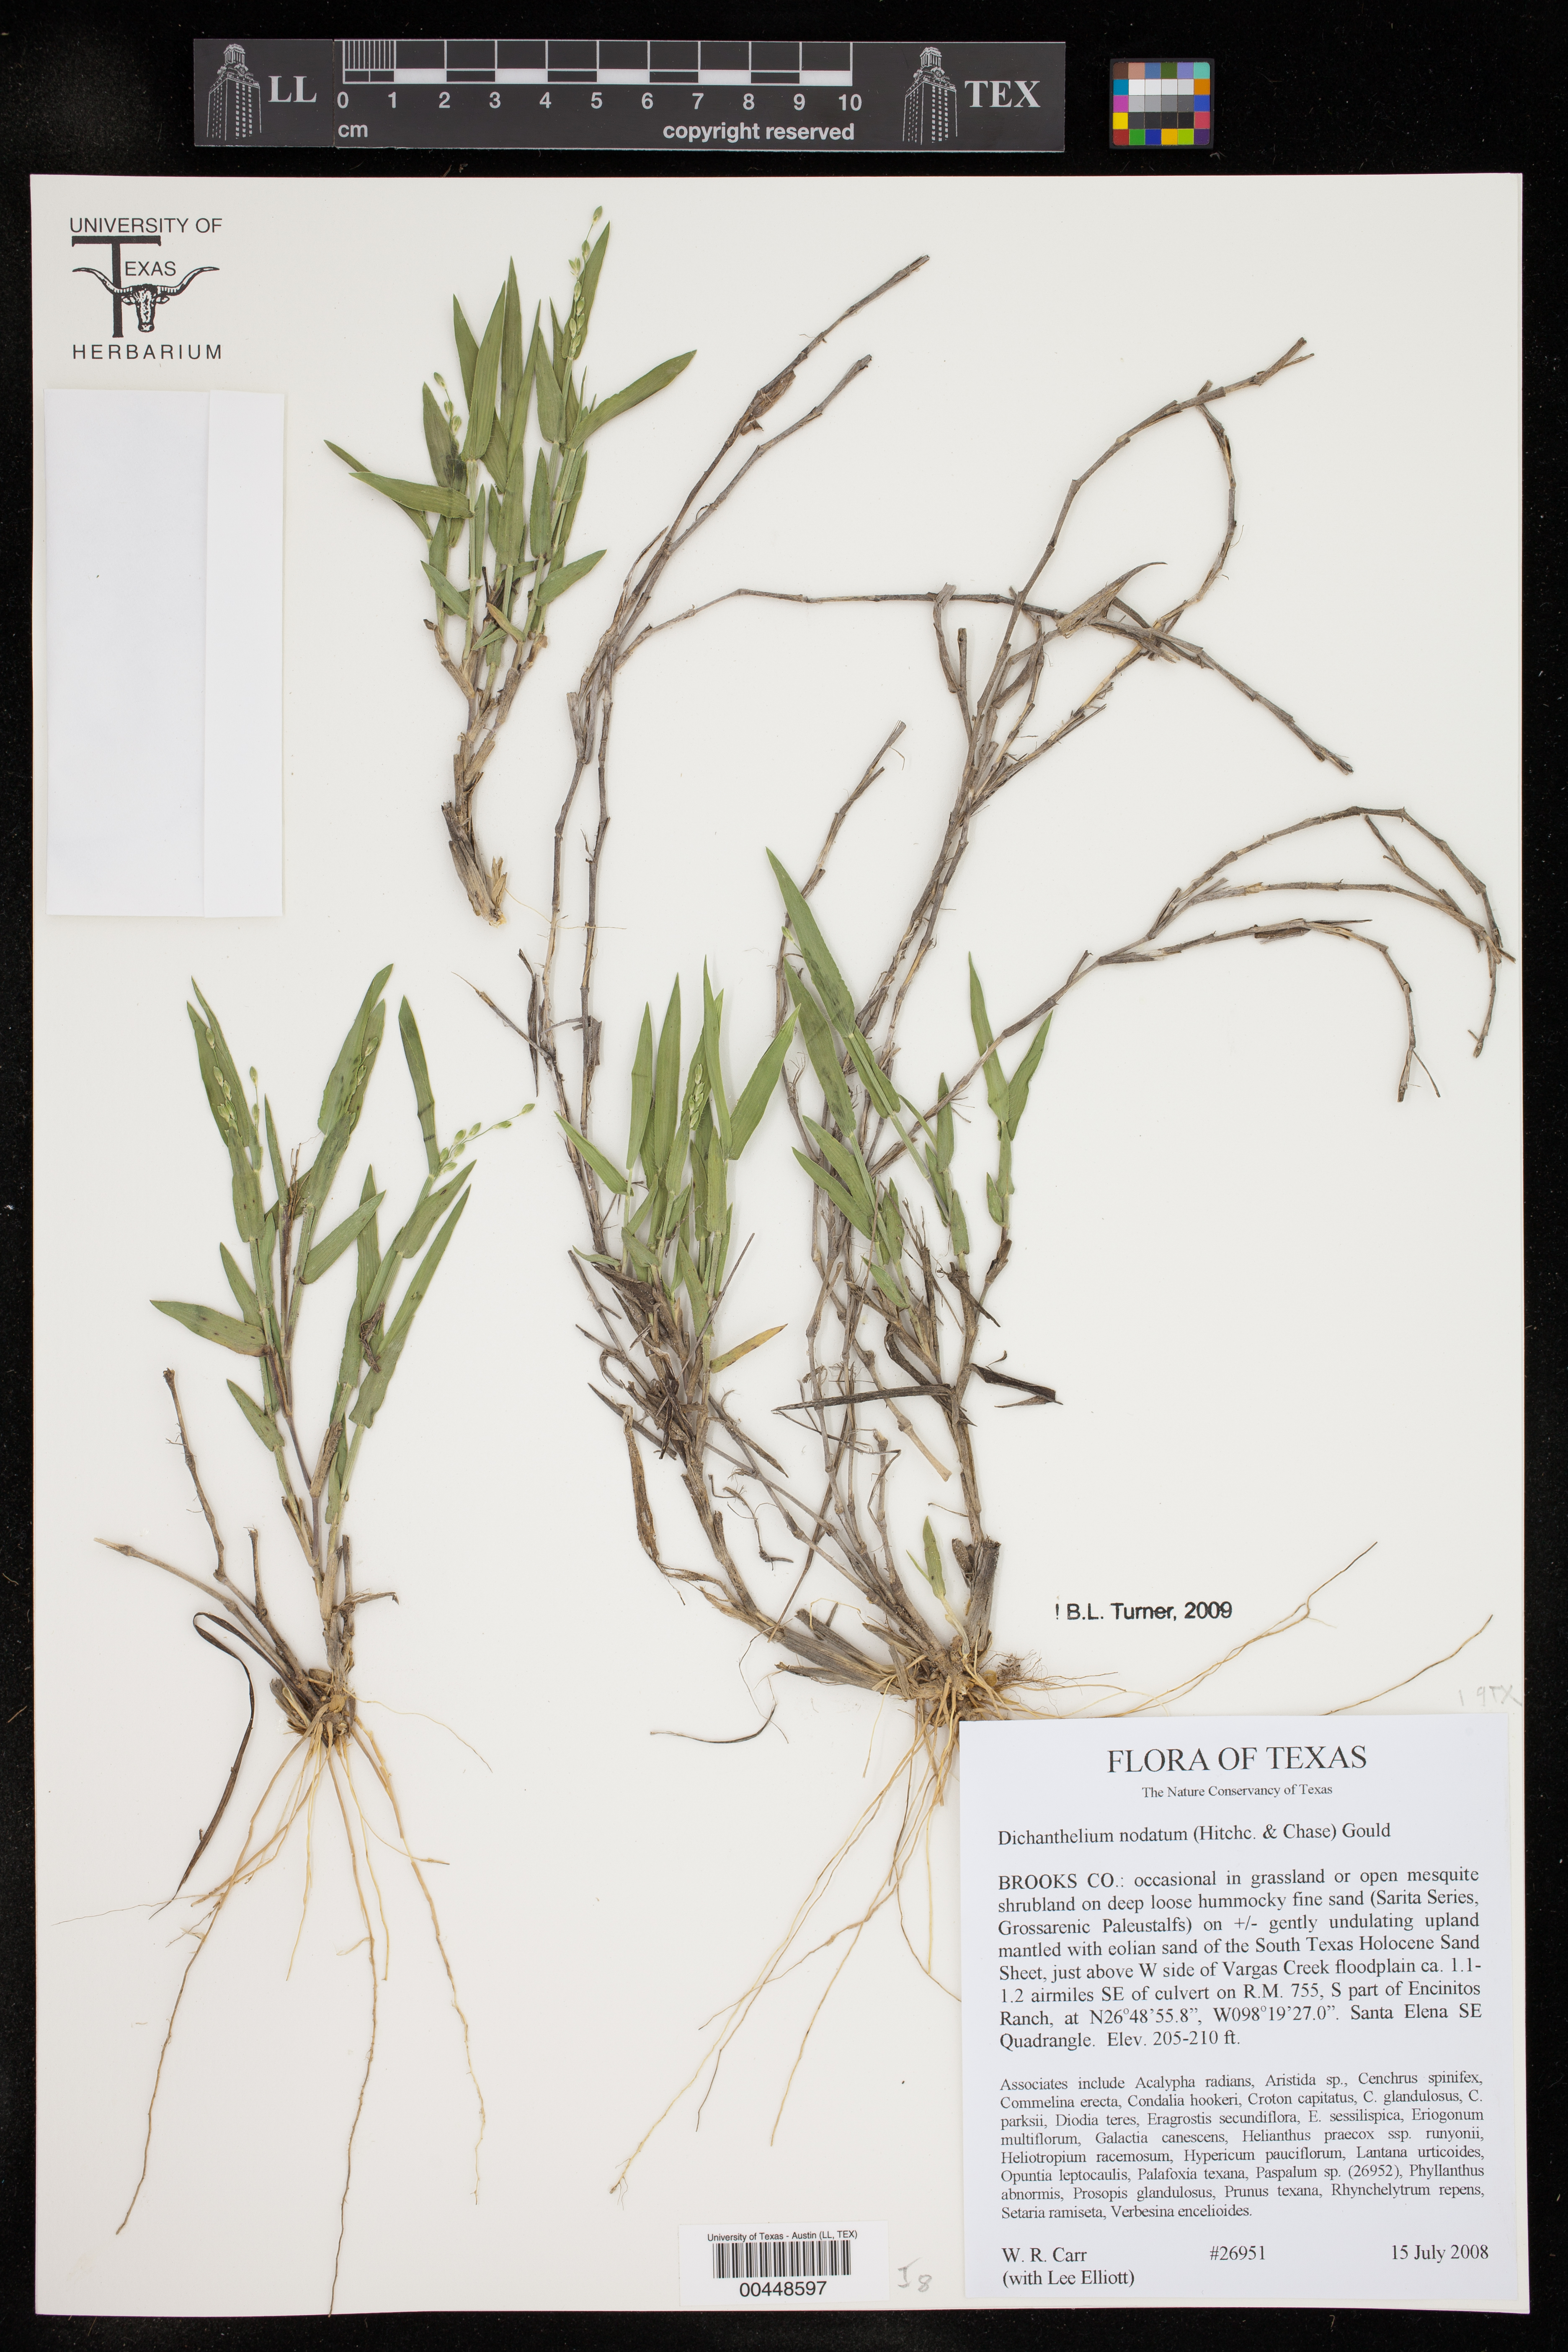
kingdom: Plantae
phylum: Tracheophyta
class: Liliopsida
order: Poales
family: Poaceae
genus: Dichanthelium
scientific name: Dichanthelium nodatum
